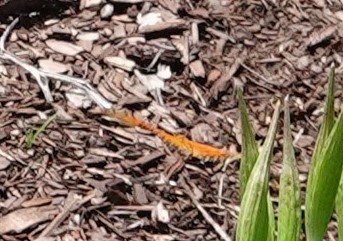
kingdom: Animalia
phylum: Arthropoda
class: Insecta
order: Lepidoptera
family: Nymphalidae
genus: Dione
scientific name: Dione vanillae
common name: Gulf Fritillary
